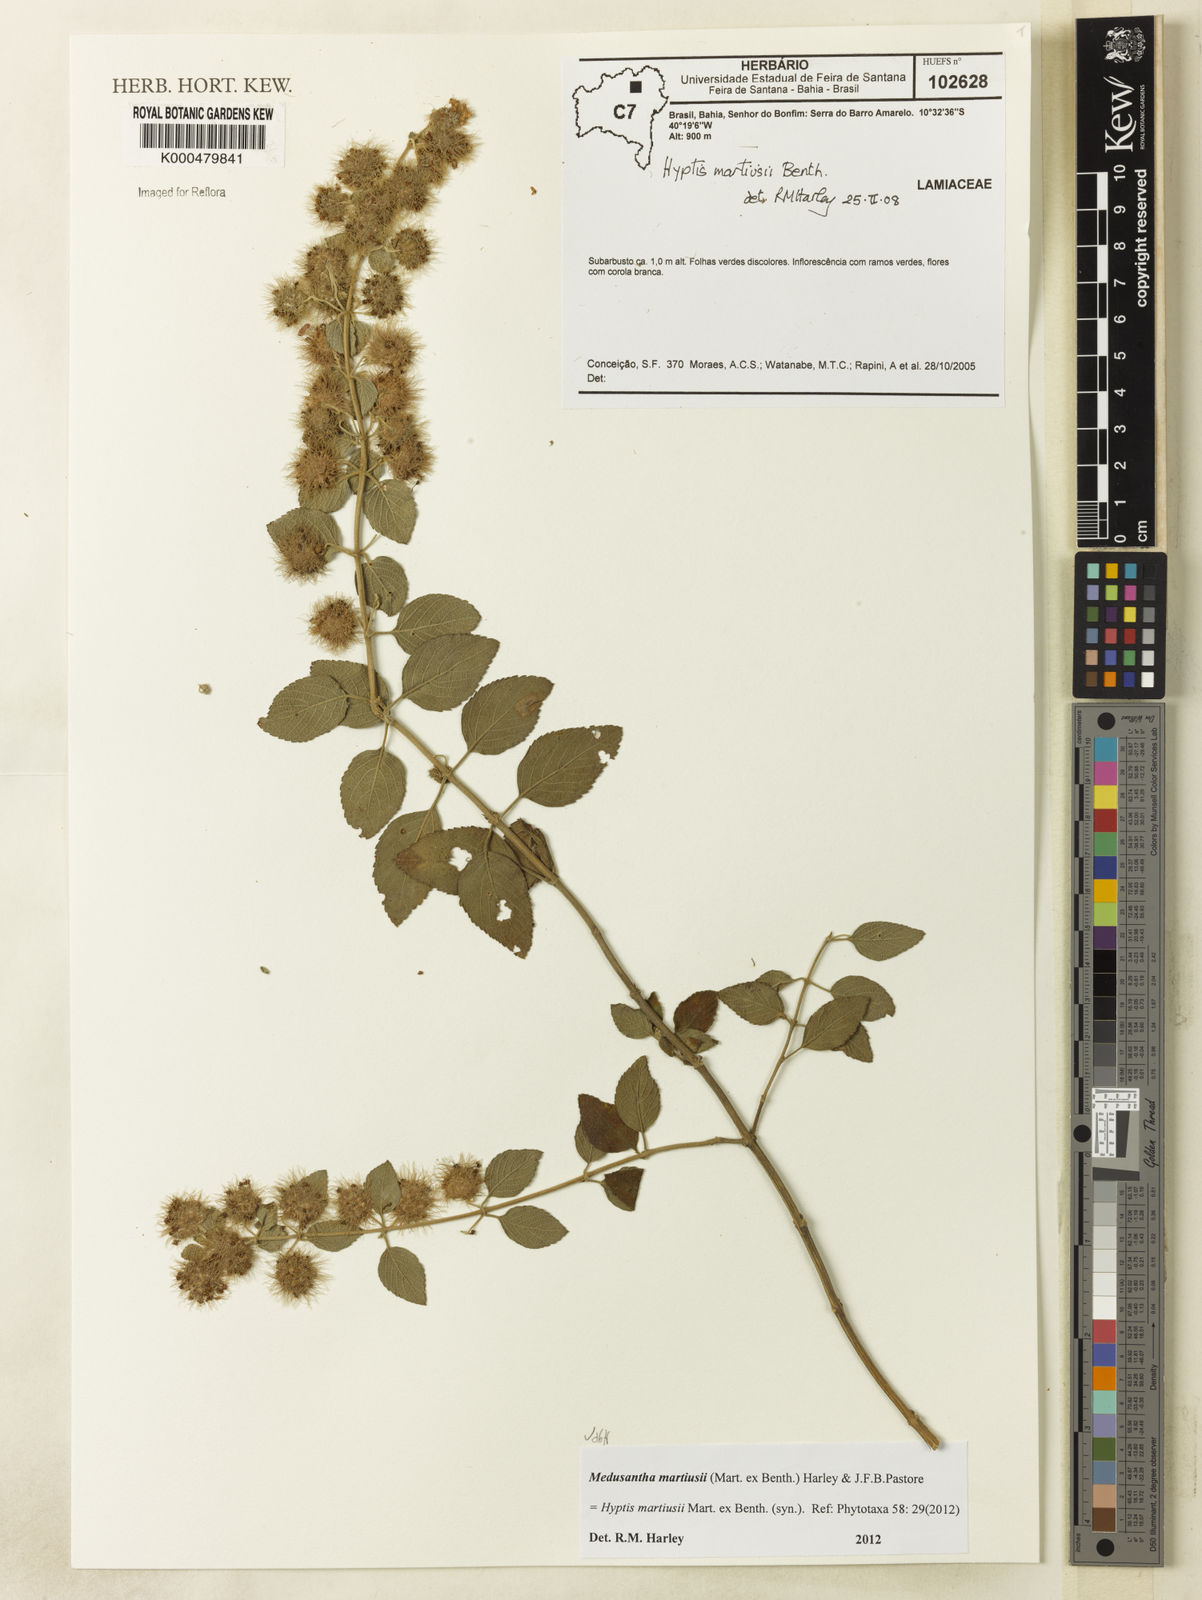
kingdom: Plantae
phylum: Tracheophyta
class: Magnoliopsida
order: Lamiales
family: Lamiaceae
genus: Medusantha
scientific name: Medusantha martiusii
